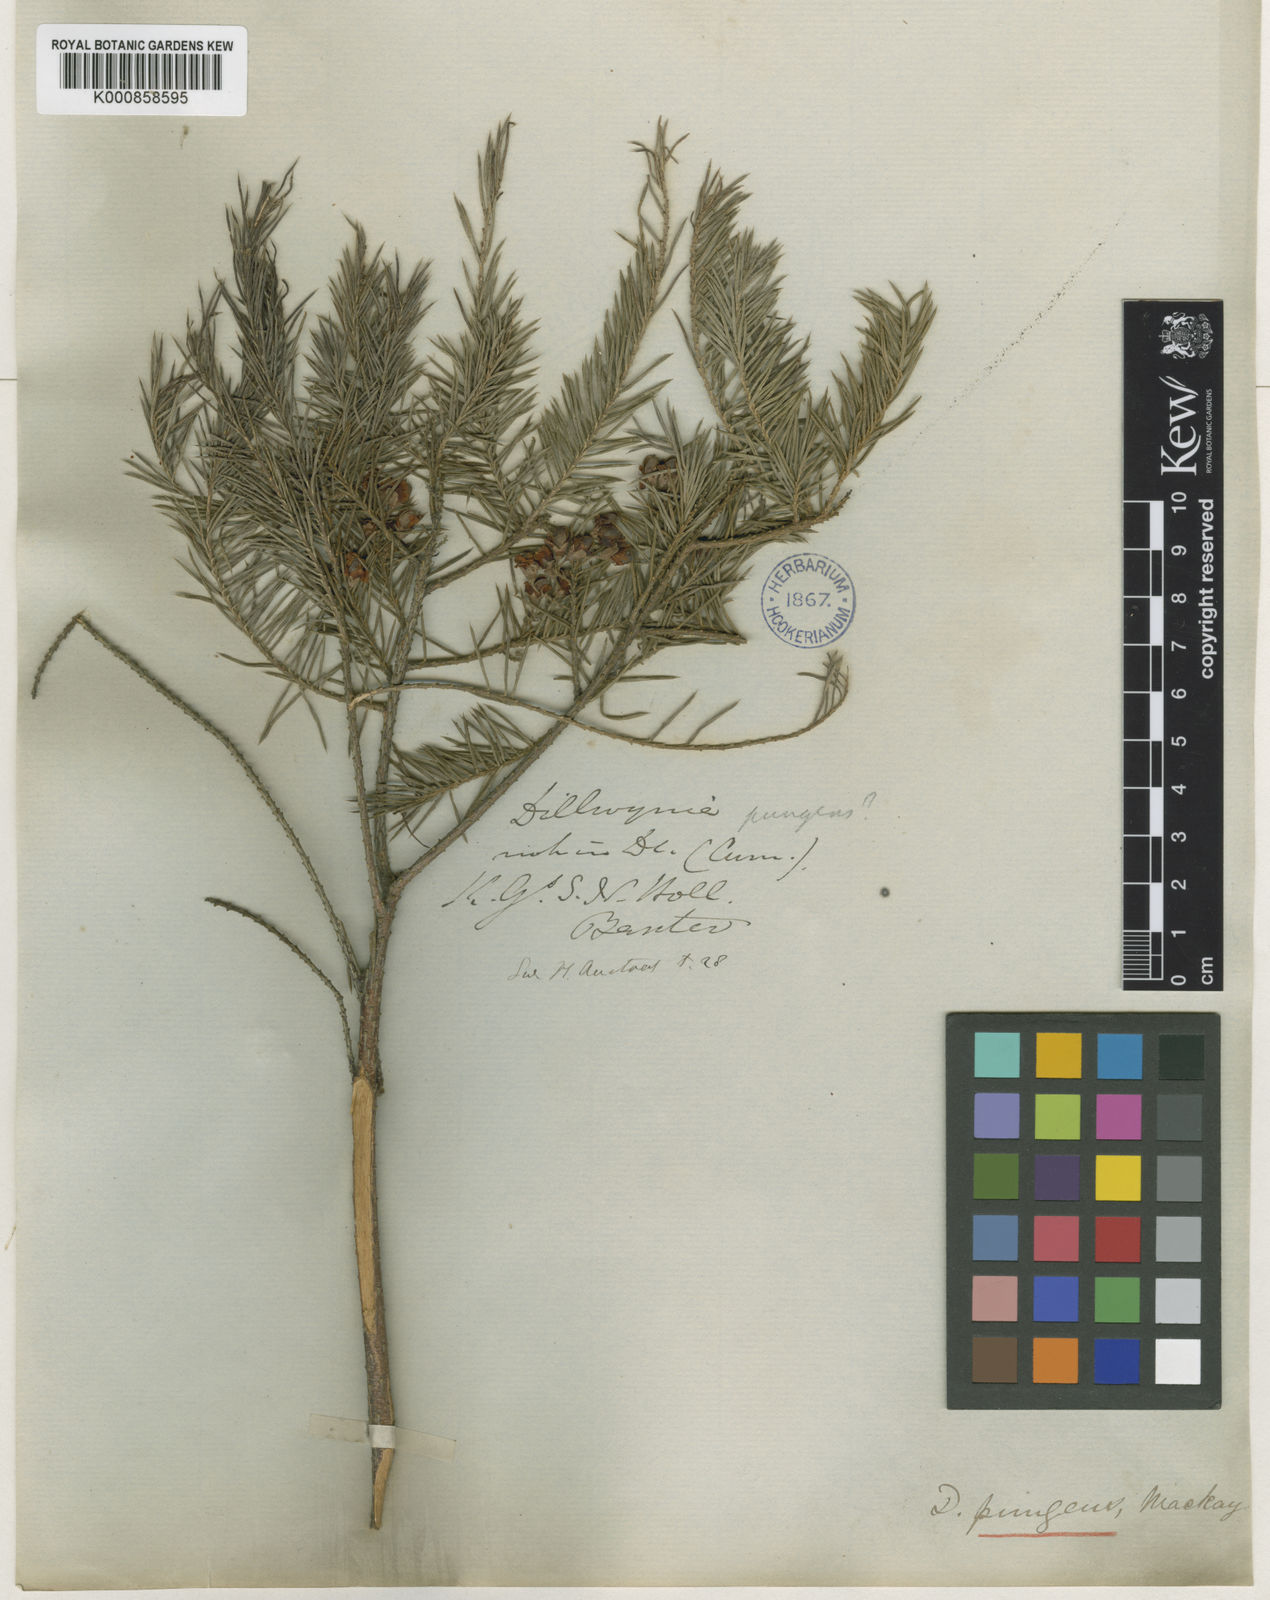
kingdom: Plantae
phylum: Tracheophyta
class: Magnoliopsida
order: Fabales
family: Fabaceae
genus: Dillwynia
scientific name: Dillwynia
